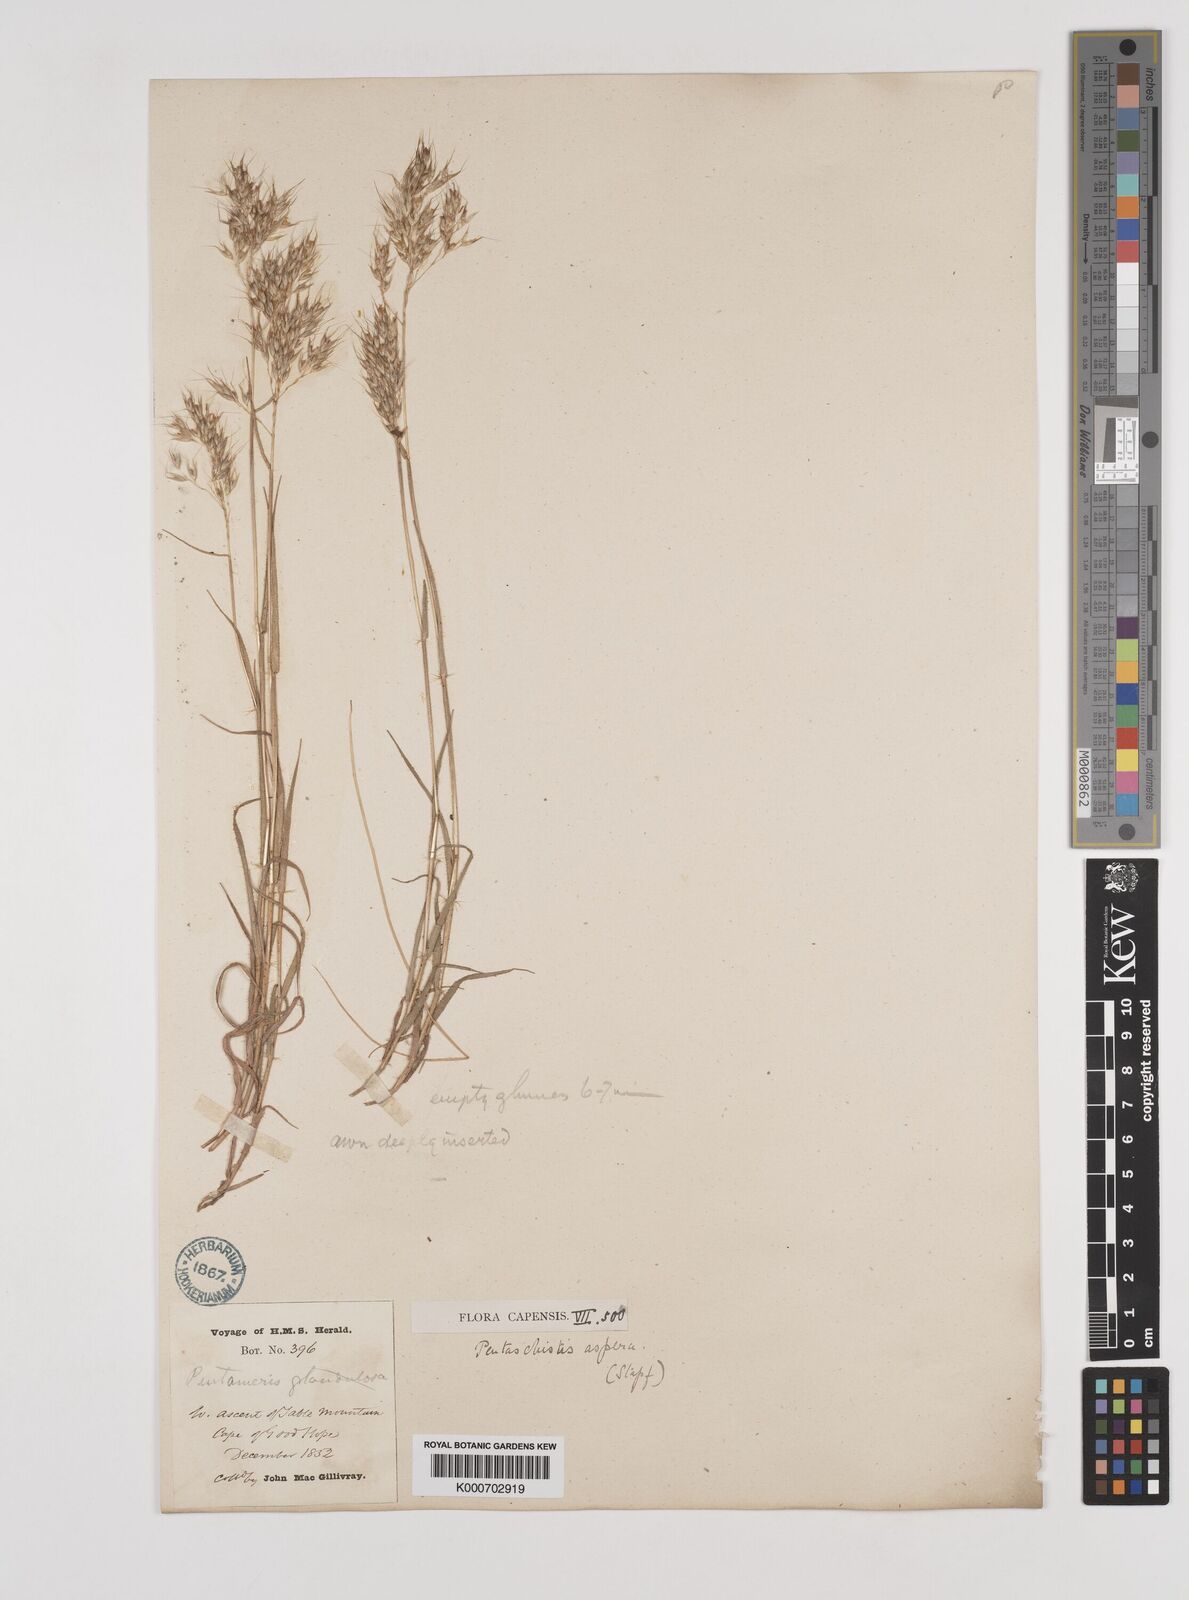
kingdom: Plantae
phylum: Tracheophyta
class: Liliopsida
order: Poales
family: Poaceae
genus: Pentameris
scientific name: Pentameris aspera
